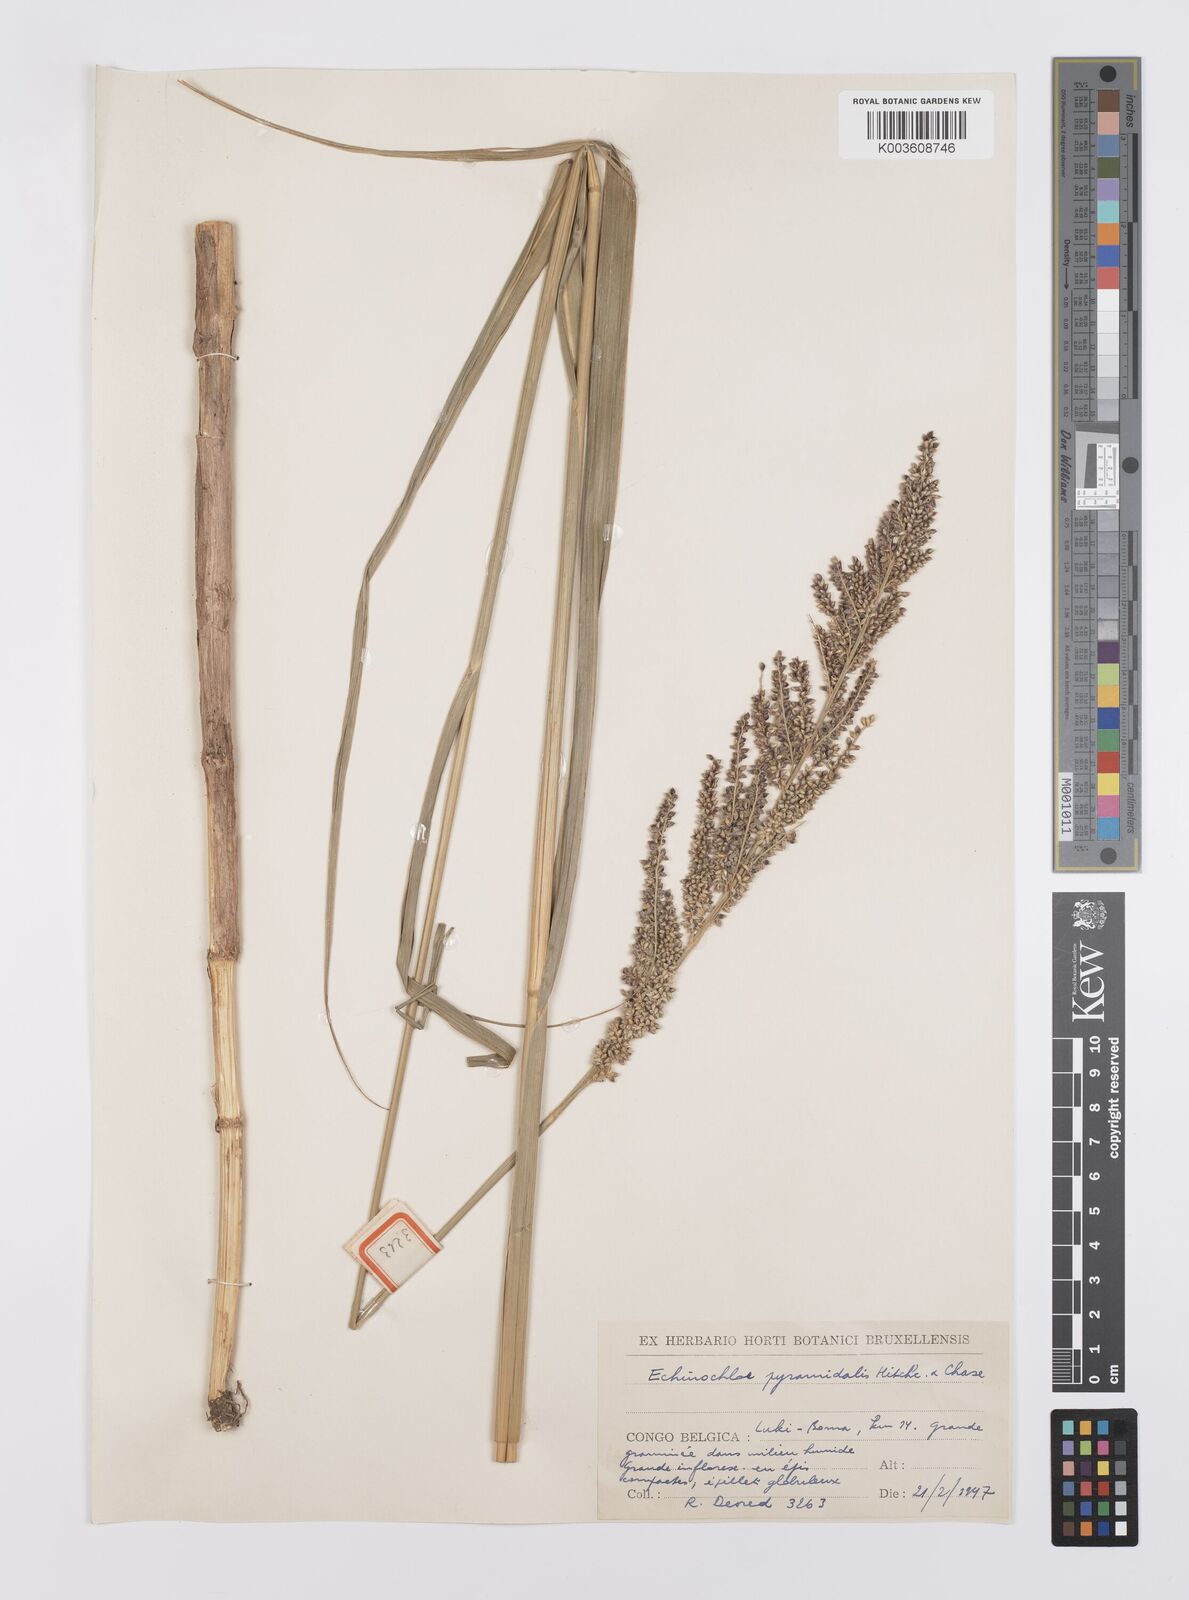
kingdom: Plantae
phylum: Tracheophyta
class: Liliopsida
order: Poales
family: Poaceae
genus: Echinochloa
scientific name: Echinochloa pyramidalis
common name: Antelope grass
